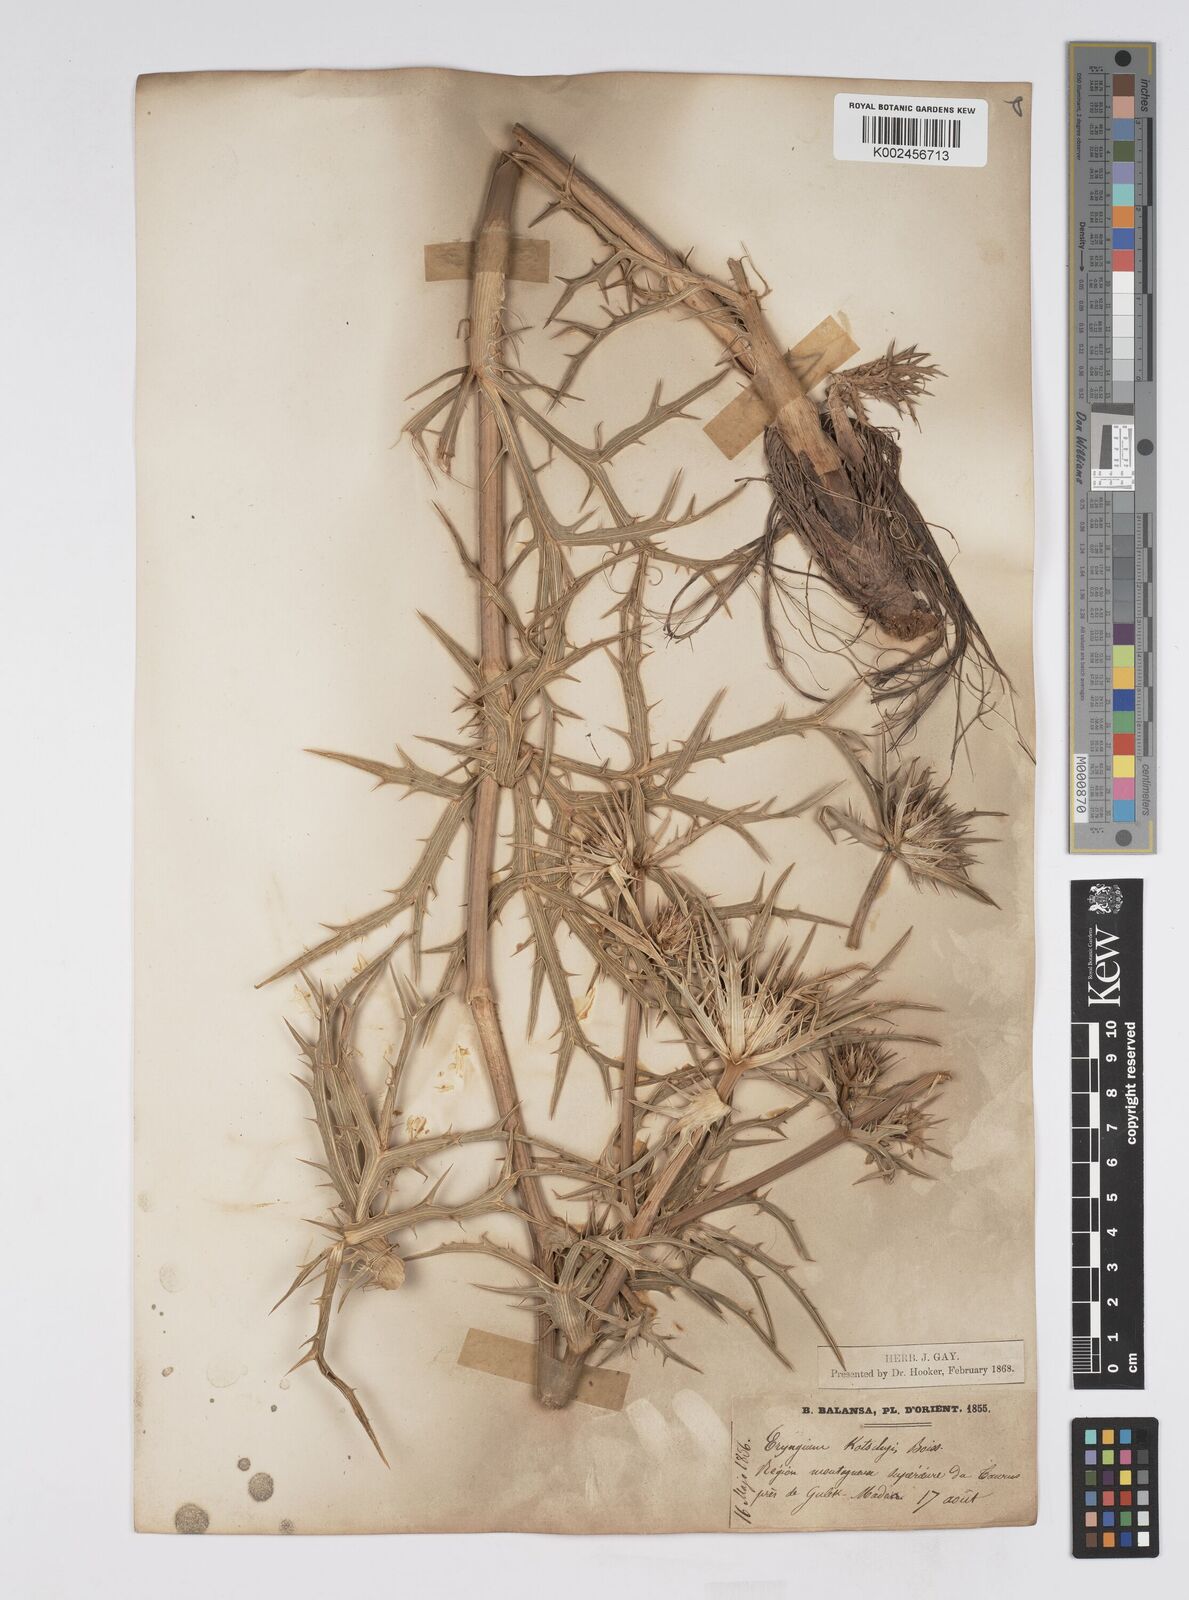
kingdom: Plantae
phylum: Tracheophyta
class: Magnoliopsida
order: Apiales
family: Apiaceae
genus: Eryngium
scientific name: Eryngium
